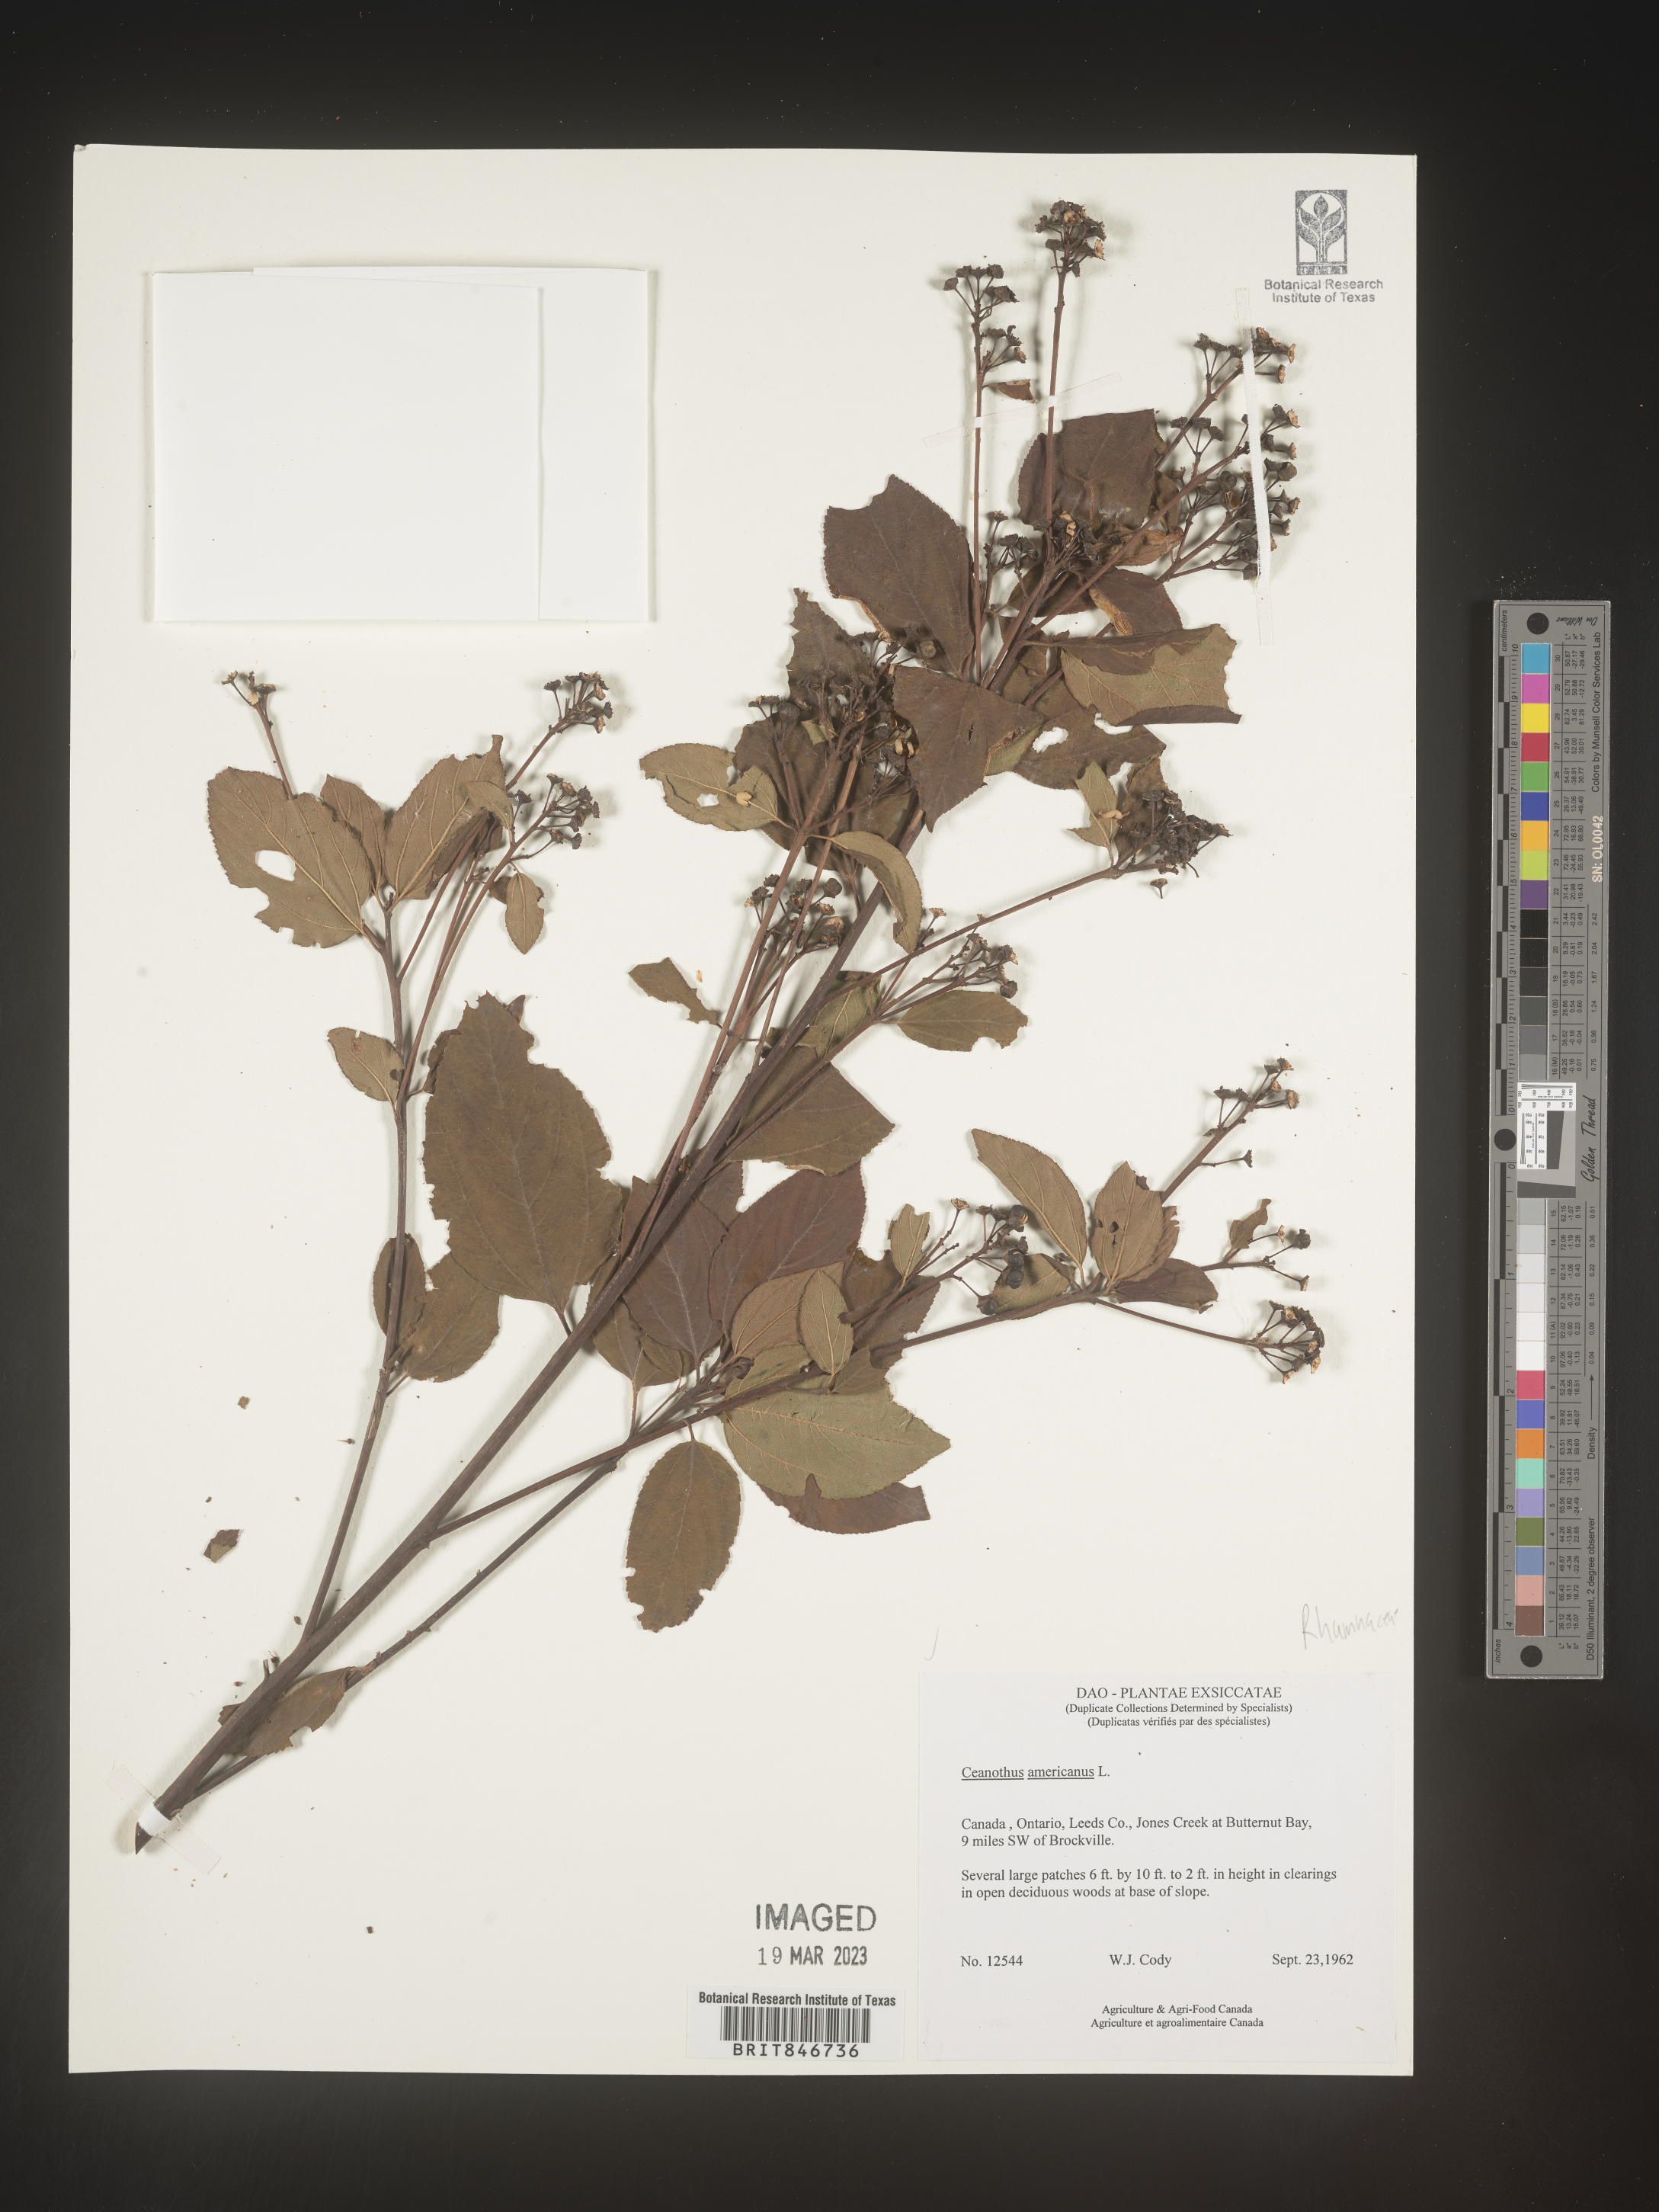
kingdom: Plantae
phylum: Tracheophyta
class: Magnoliopsida
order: Rosales
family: Rhamnaceae
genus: Ceanothus
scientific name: Ceanothus americanus
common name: Redroot
